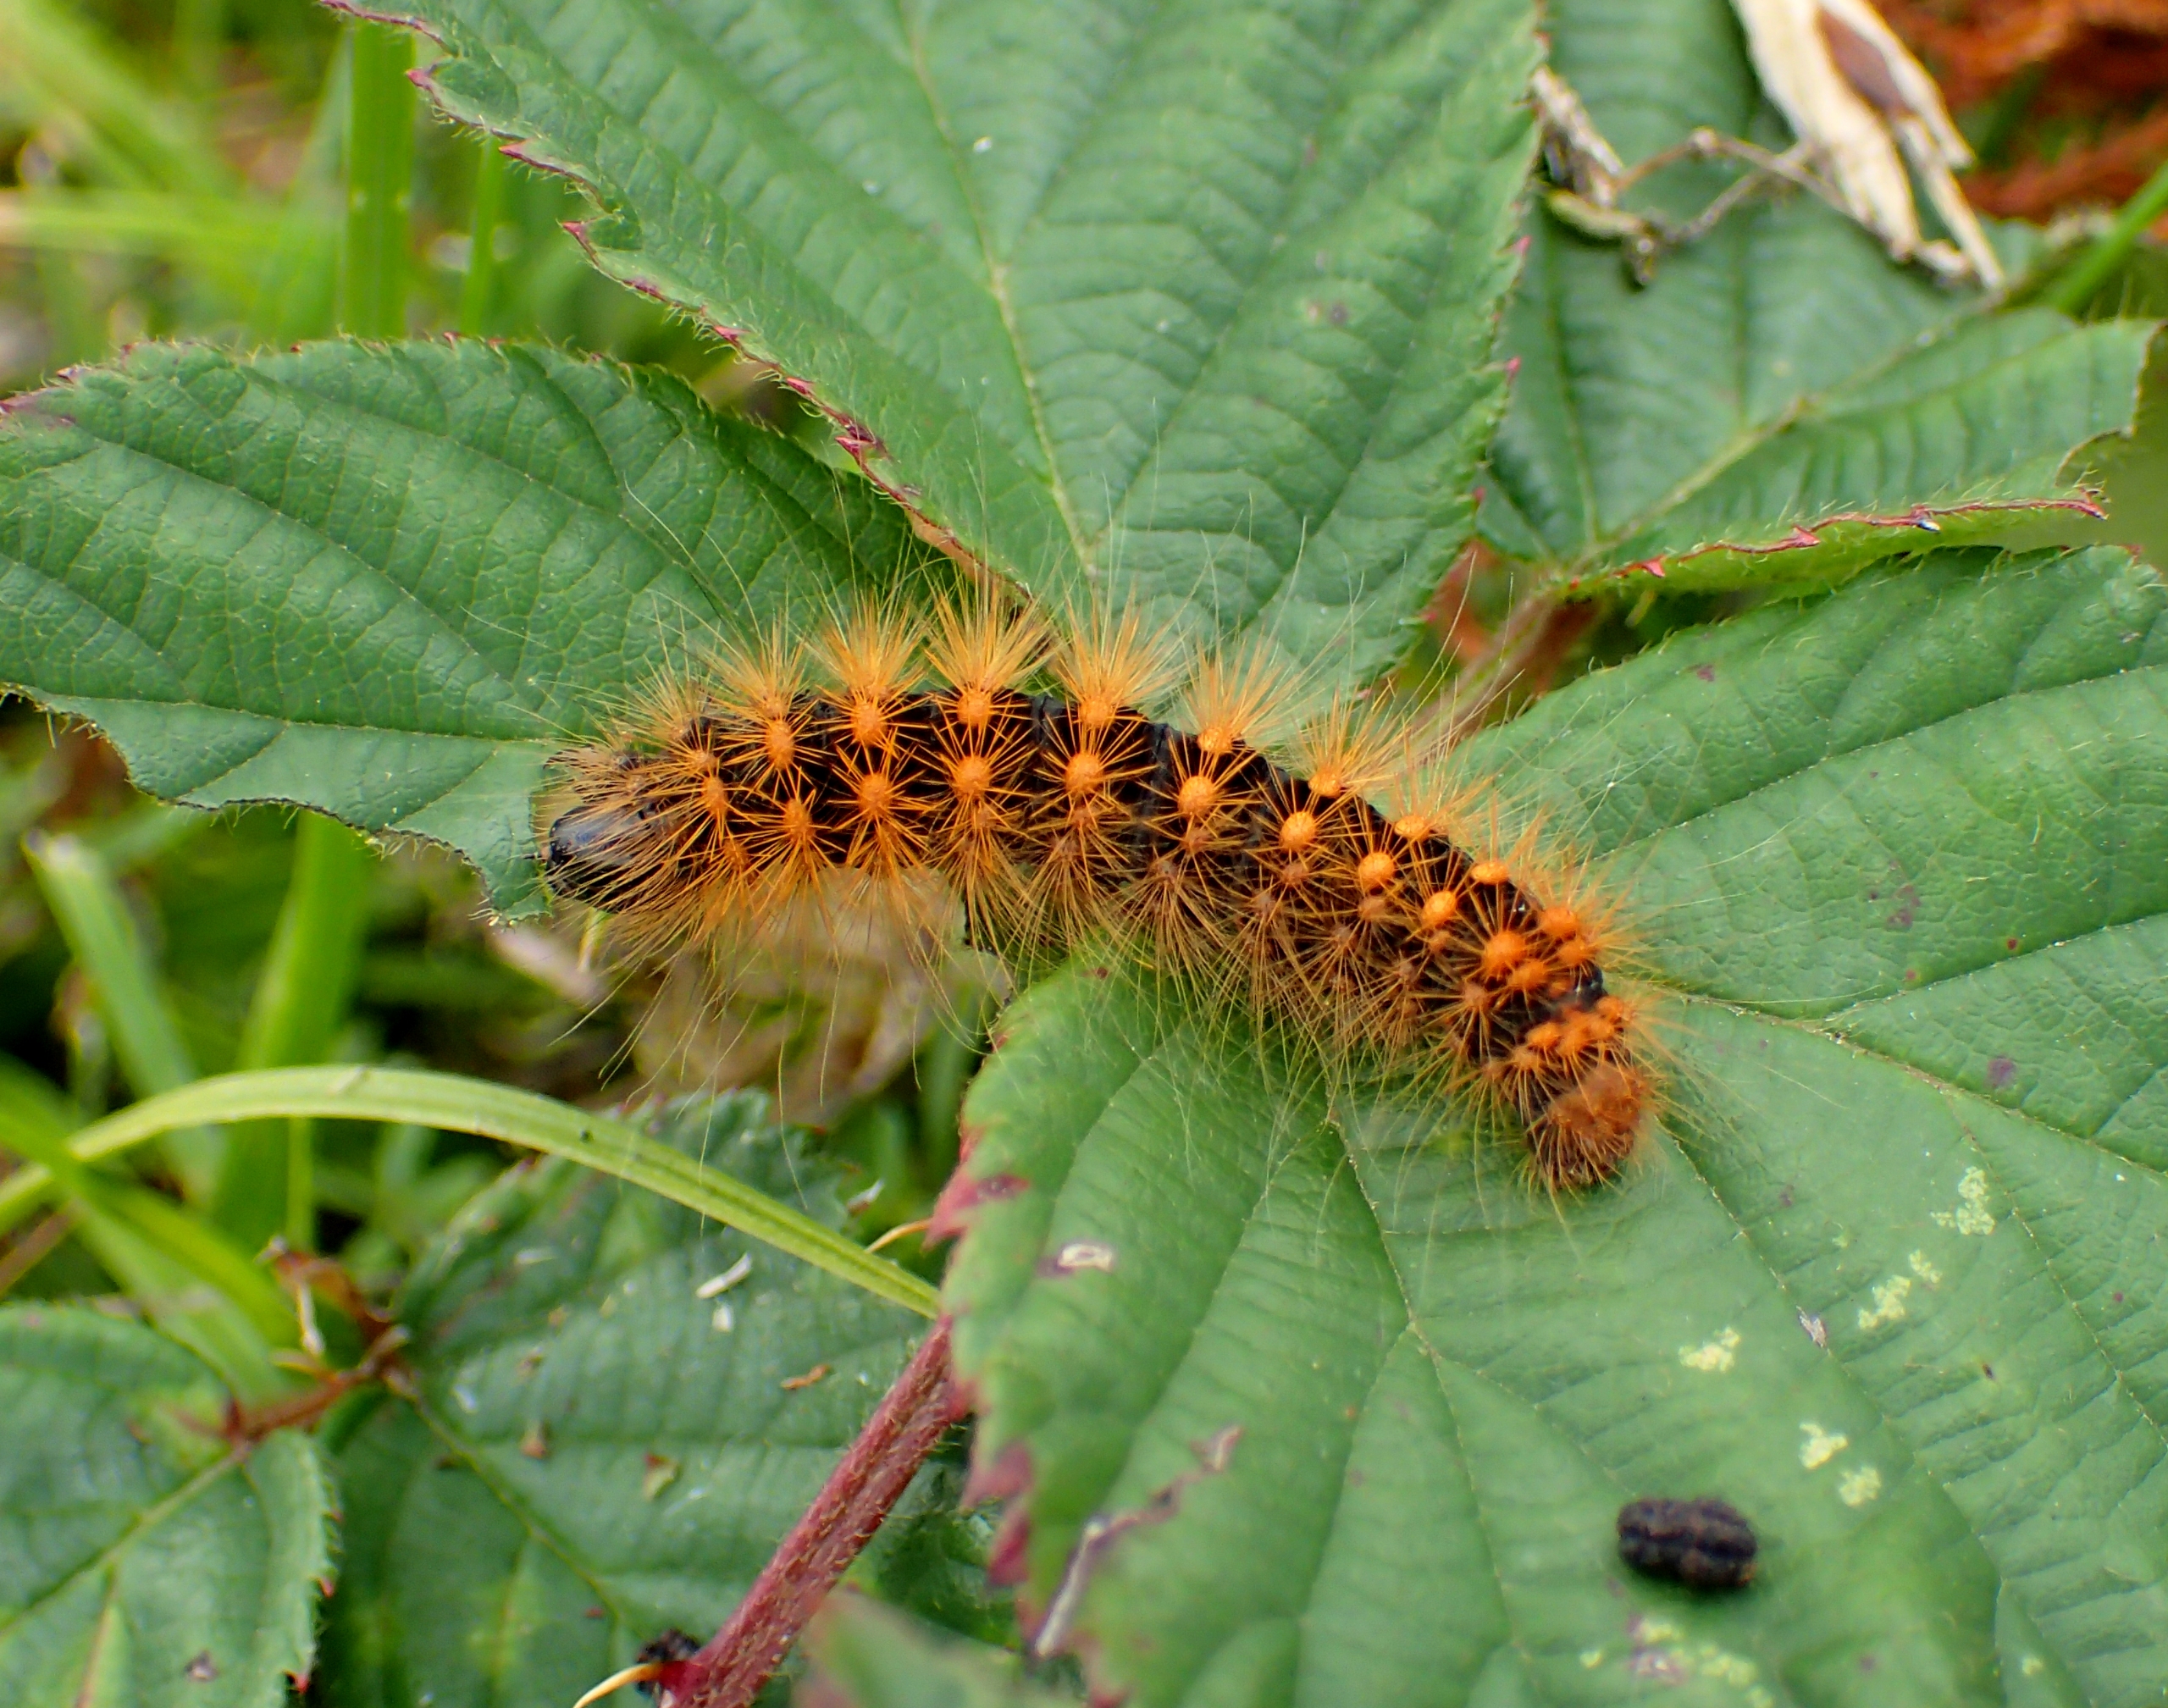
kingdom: Animalia
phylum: Arthropoda
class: Insecta
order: Lepidoptera
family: Noctuidae
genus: Acronicta
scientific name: Acronicta auricoma
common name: Guldlok-pelsugle
